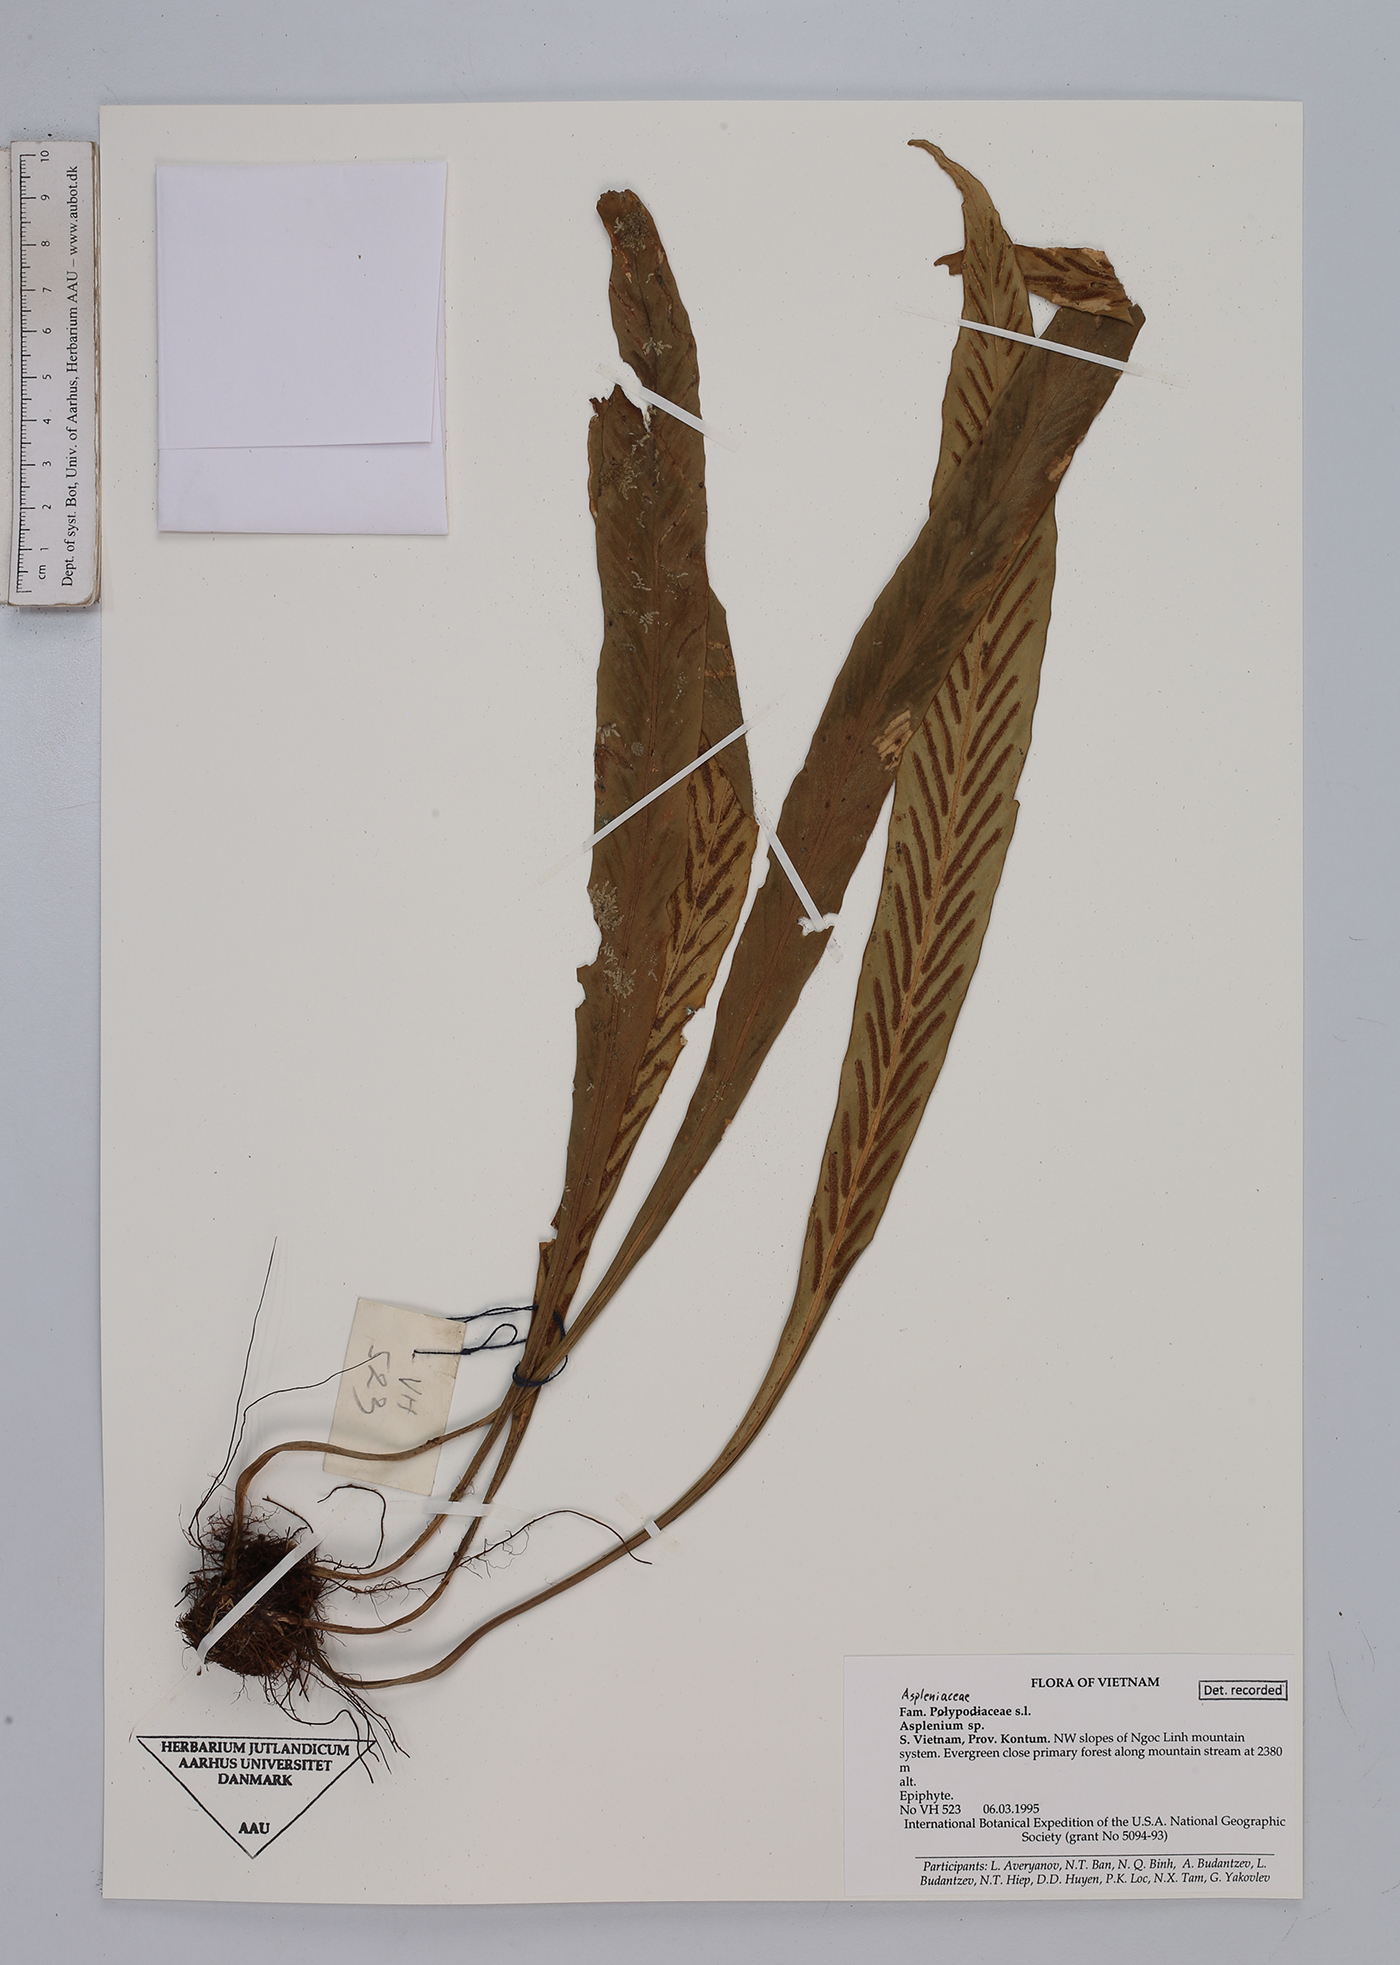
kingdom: Plantae
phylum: Tracheophyta
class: Polypodiopsida
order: Polypodiales
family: Aspleniaceae
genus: Asplenium
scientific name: Asplenium
